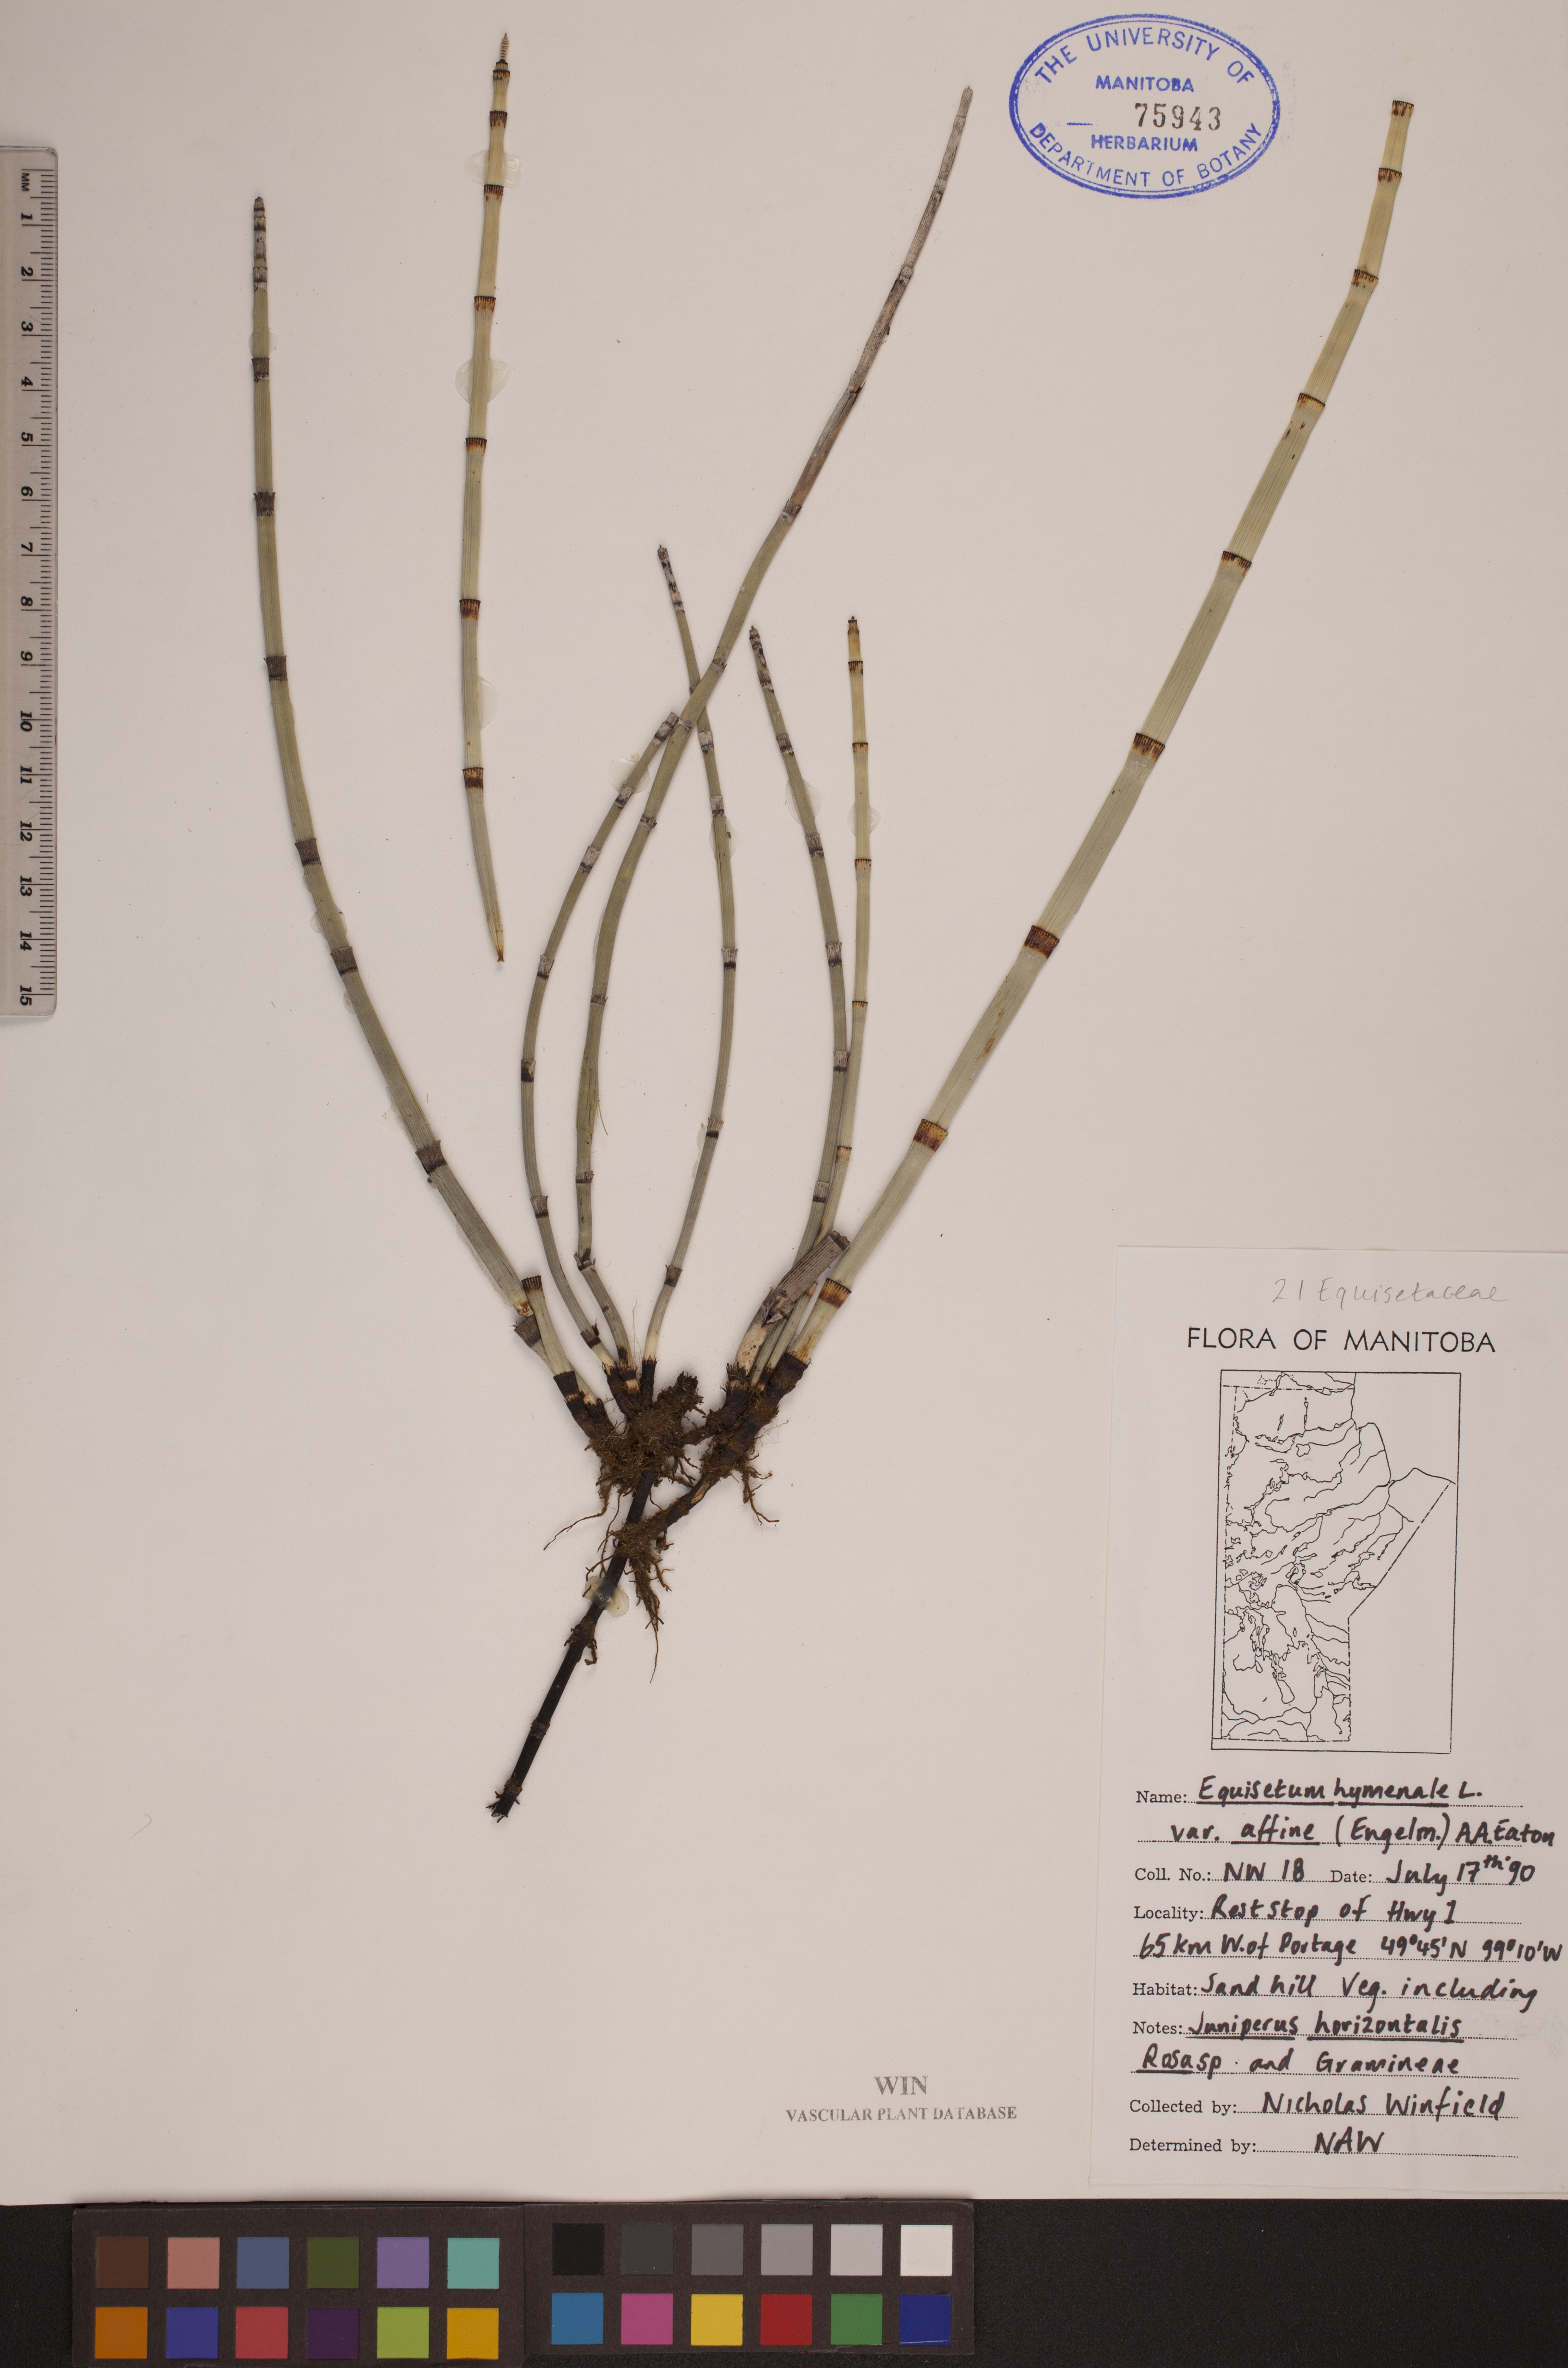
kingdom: Plantae
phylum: Tracheophyta
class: Polypodiopsida
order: Equisetales
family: Equisetaceae
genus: Equisetum
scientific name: Equisetum praealtum
